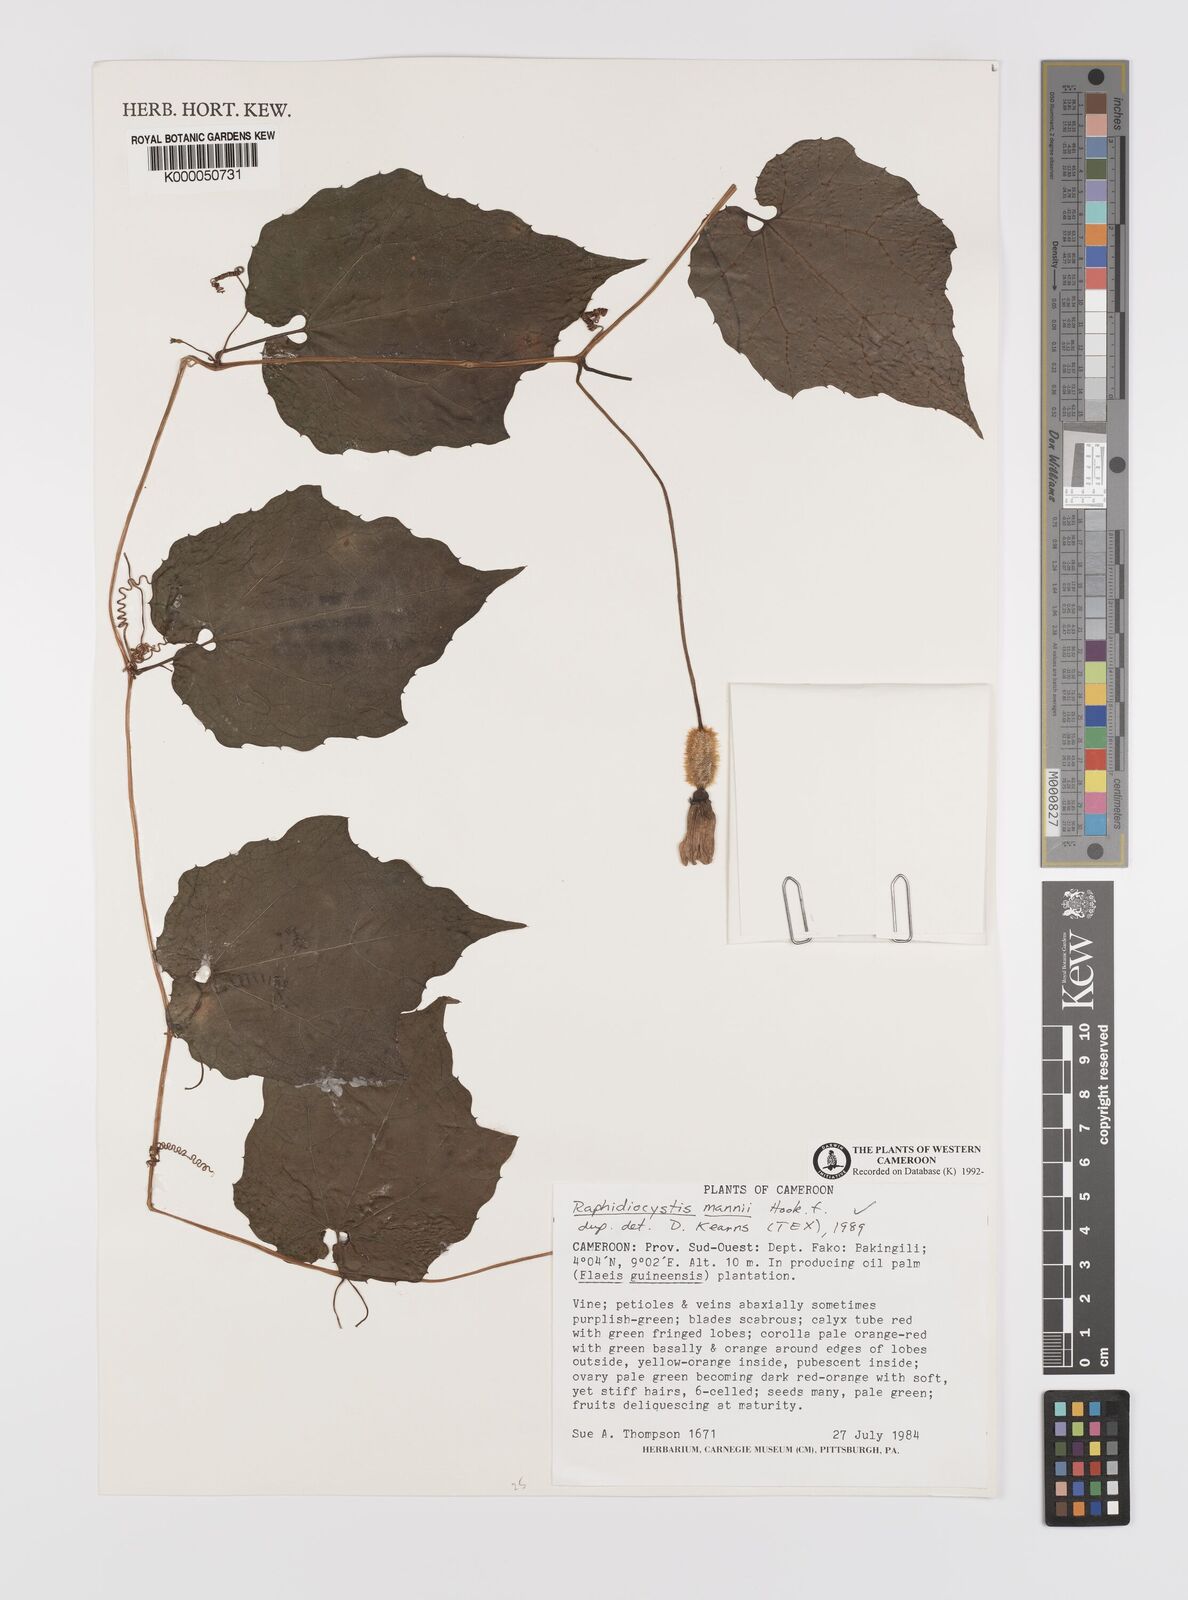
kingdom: Plantae
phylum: Tracheophyta
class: Magnoliopsida
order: Cucurbitales
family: Cucurbitaceae
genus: Raphidiocystis
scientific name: Raphidiocystis mannii
